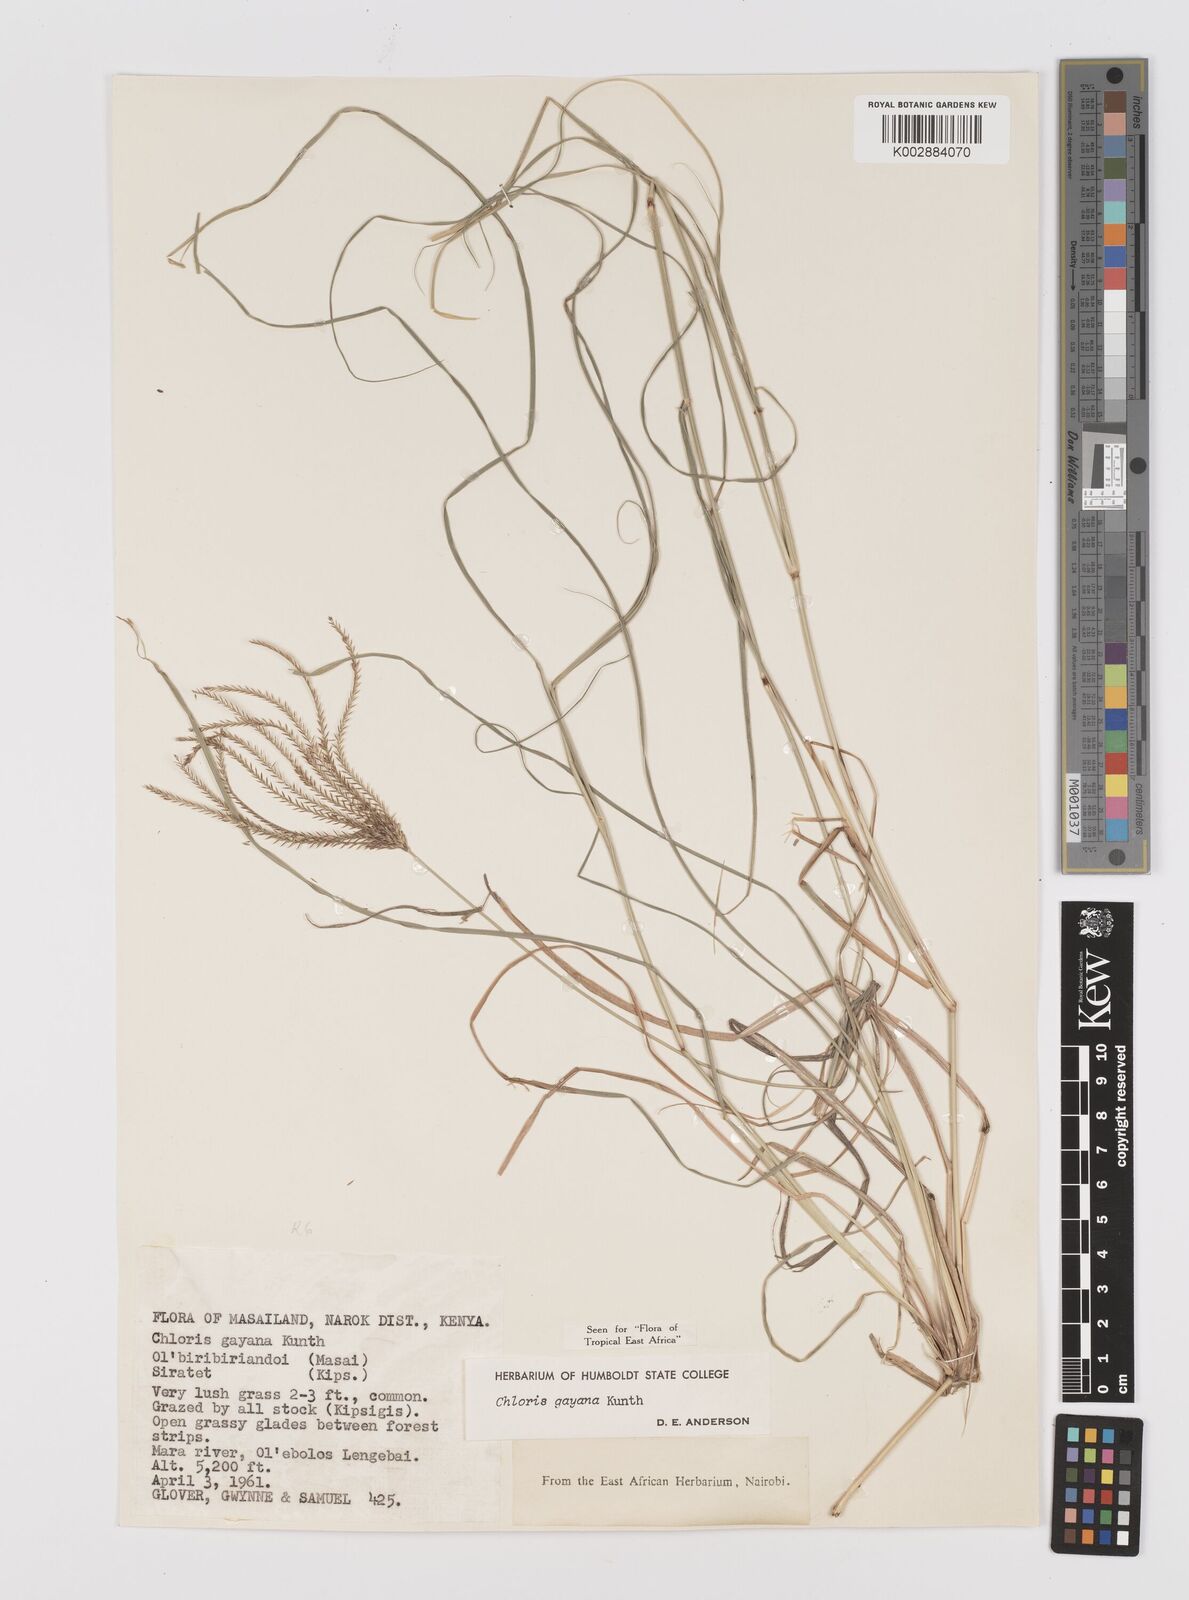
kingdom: Plantae
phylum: Tracheophyta
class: Liliopsida
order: Poales
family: Poaceae
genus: Chloris
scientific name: Chloris gayana
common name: Rhodes grass
